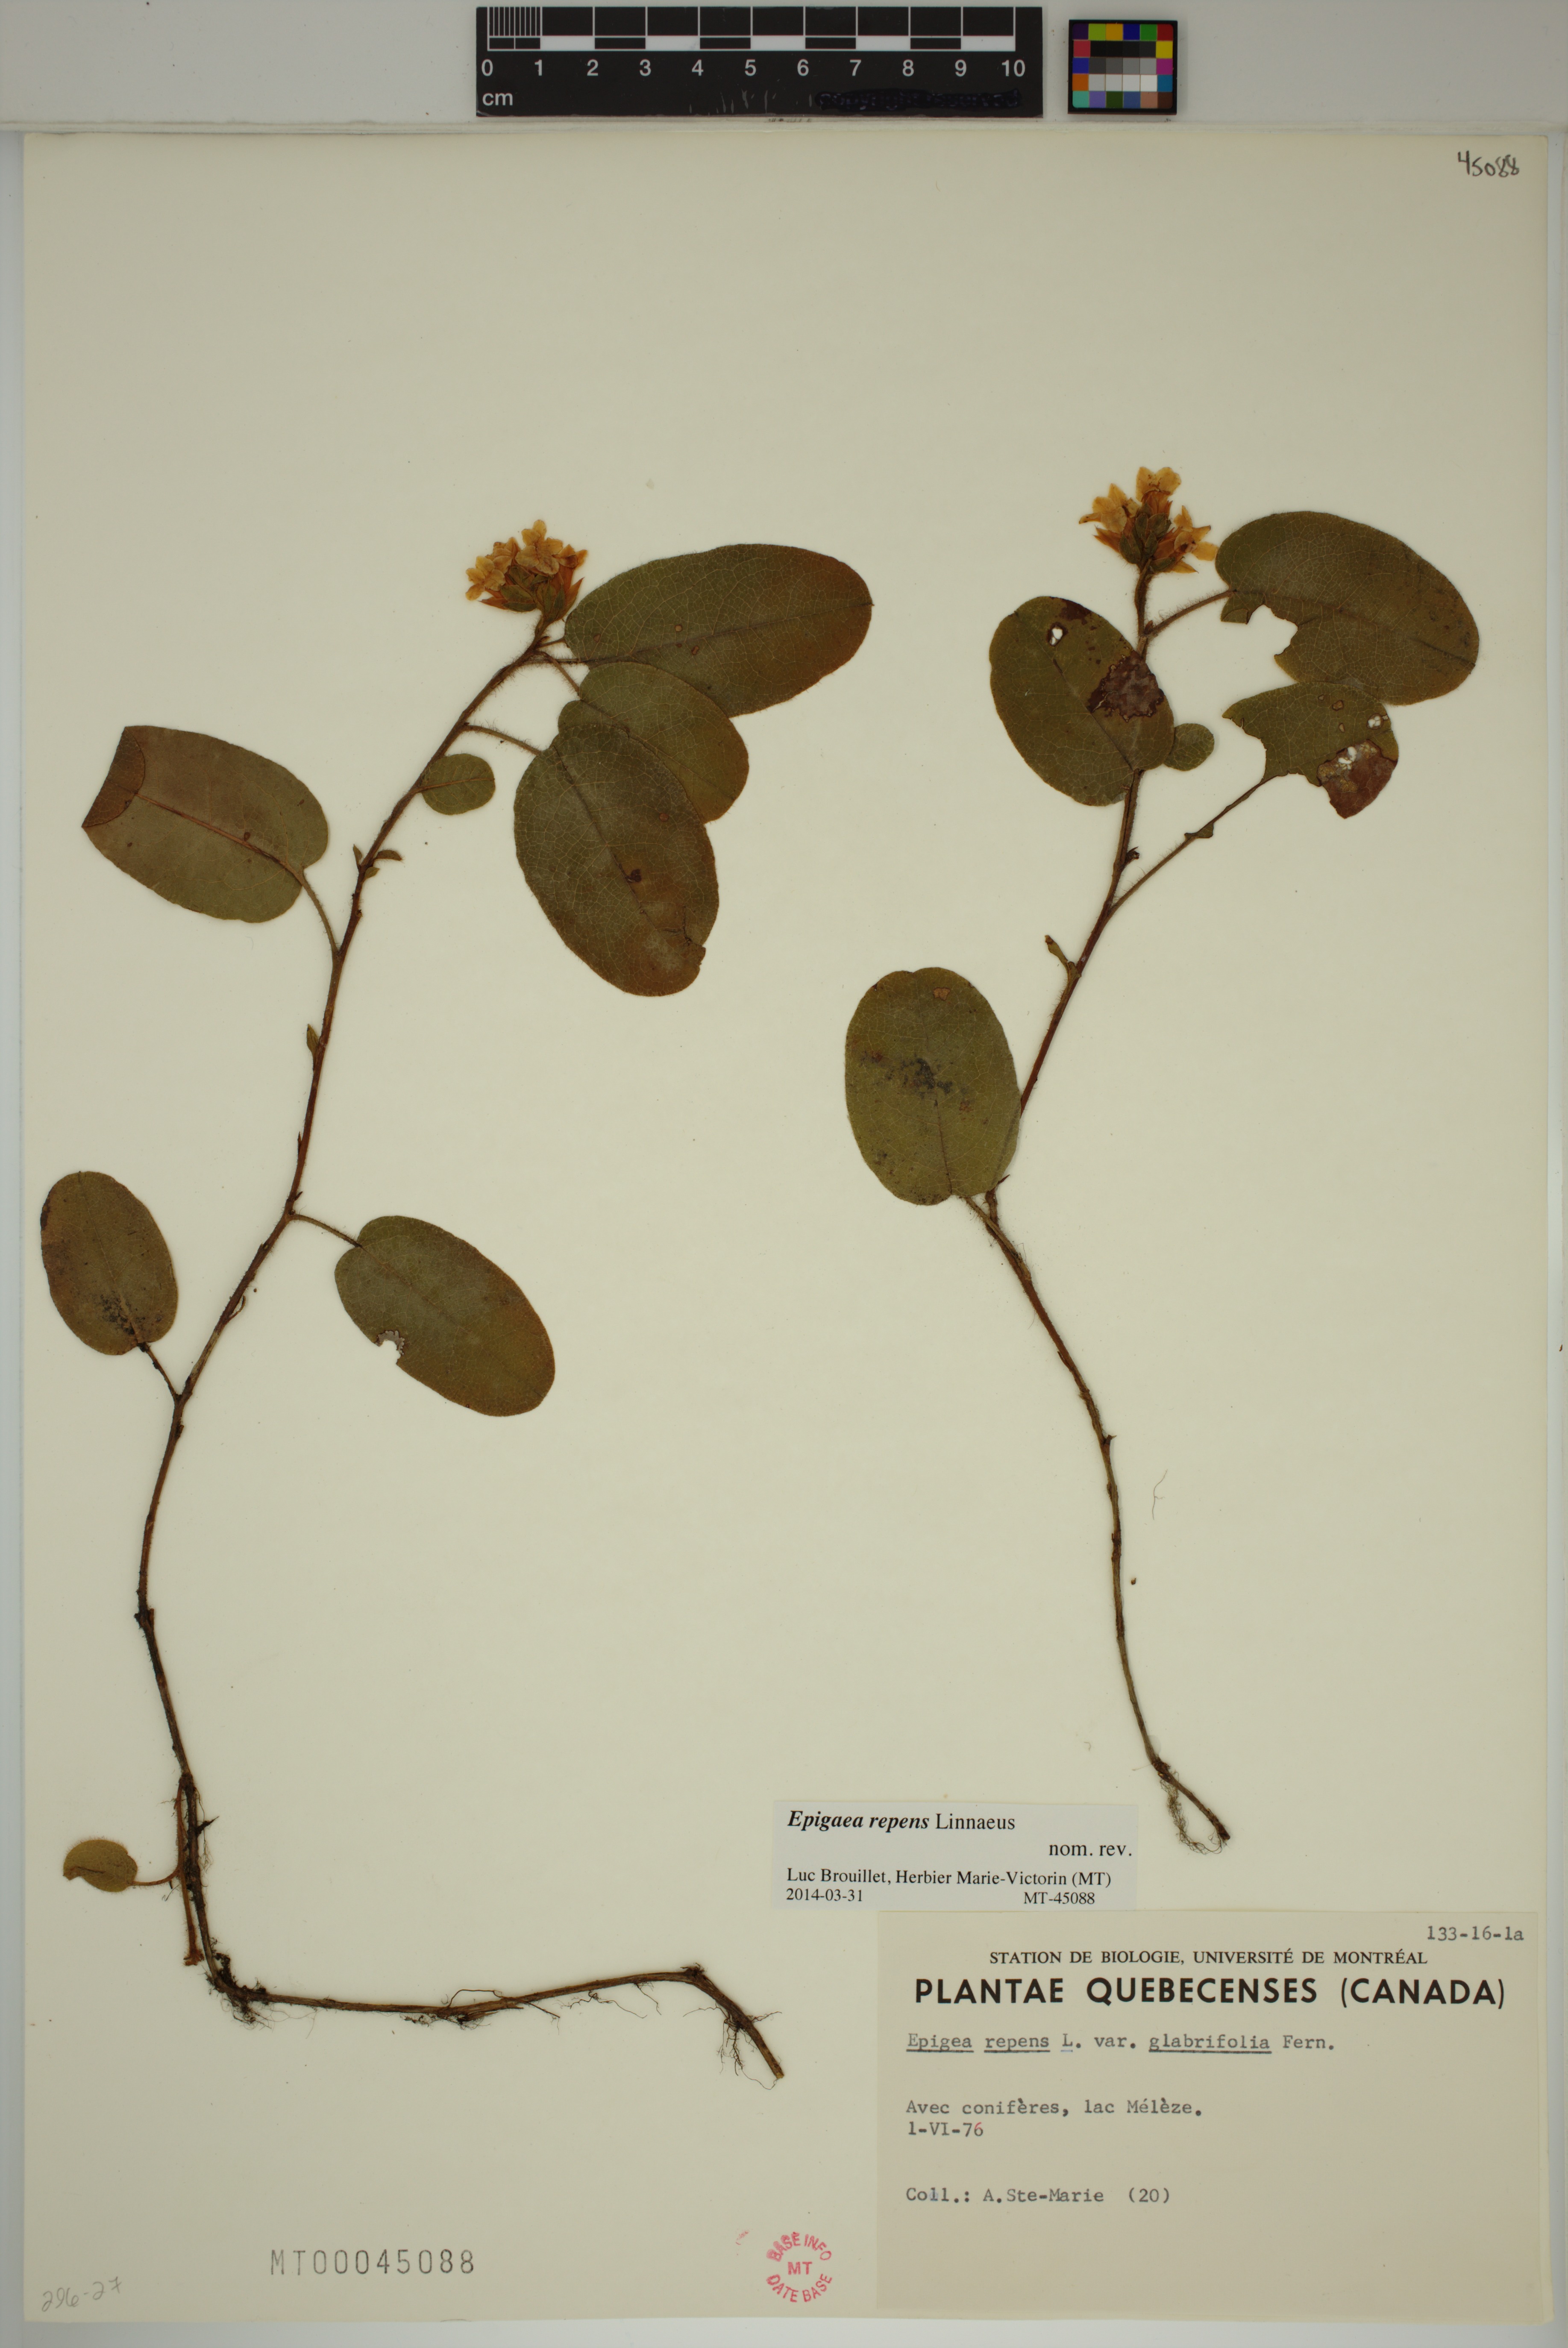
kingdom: Plantae
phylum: Tracheophyta
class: Magnoliopsida
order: Ericales
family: Ericaceae
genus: Epigaea
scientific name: Epigaea repens
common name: Gravelroot
